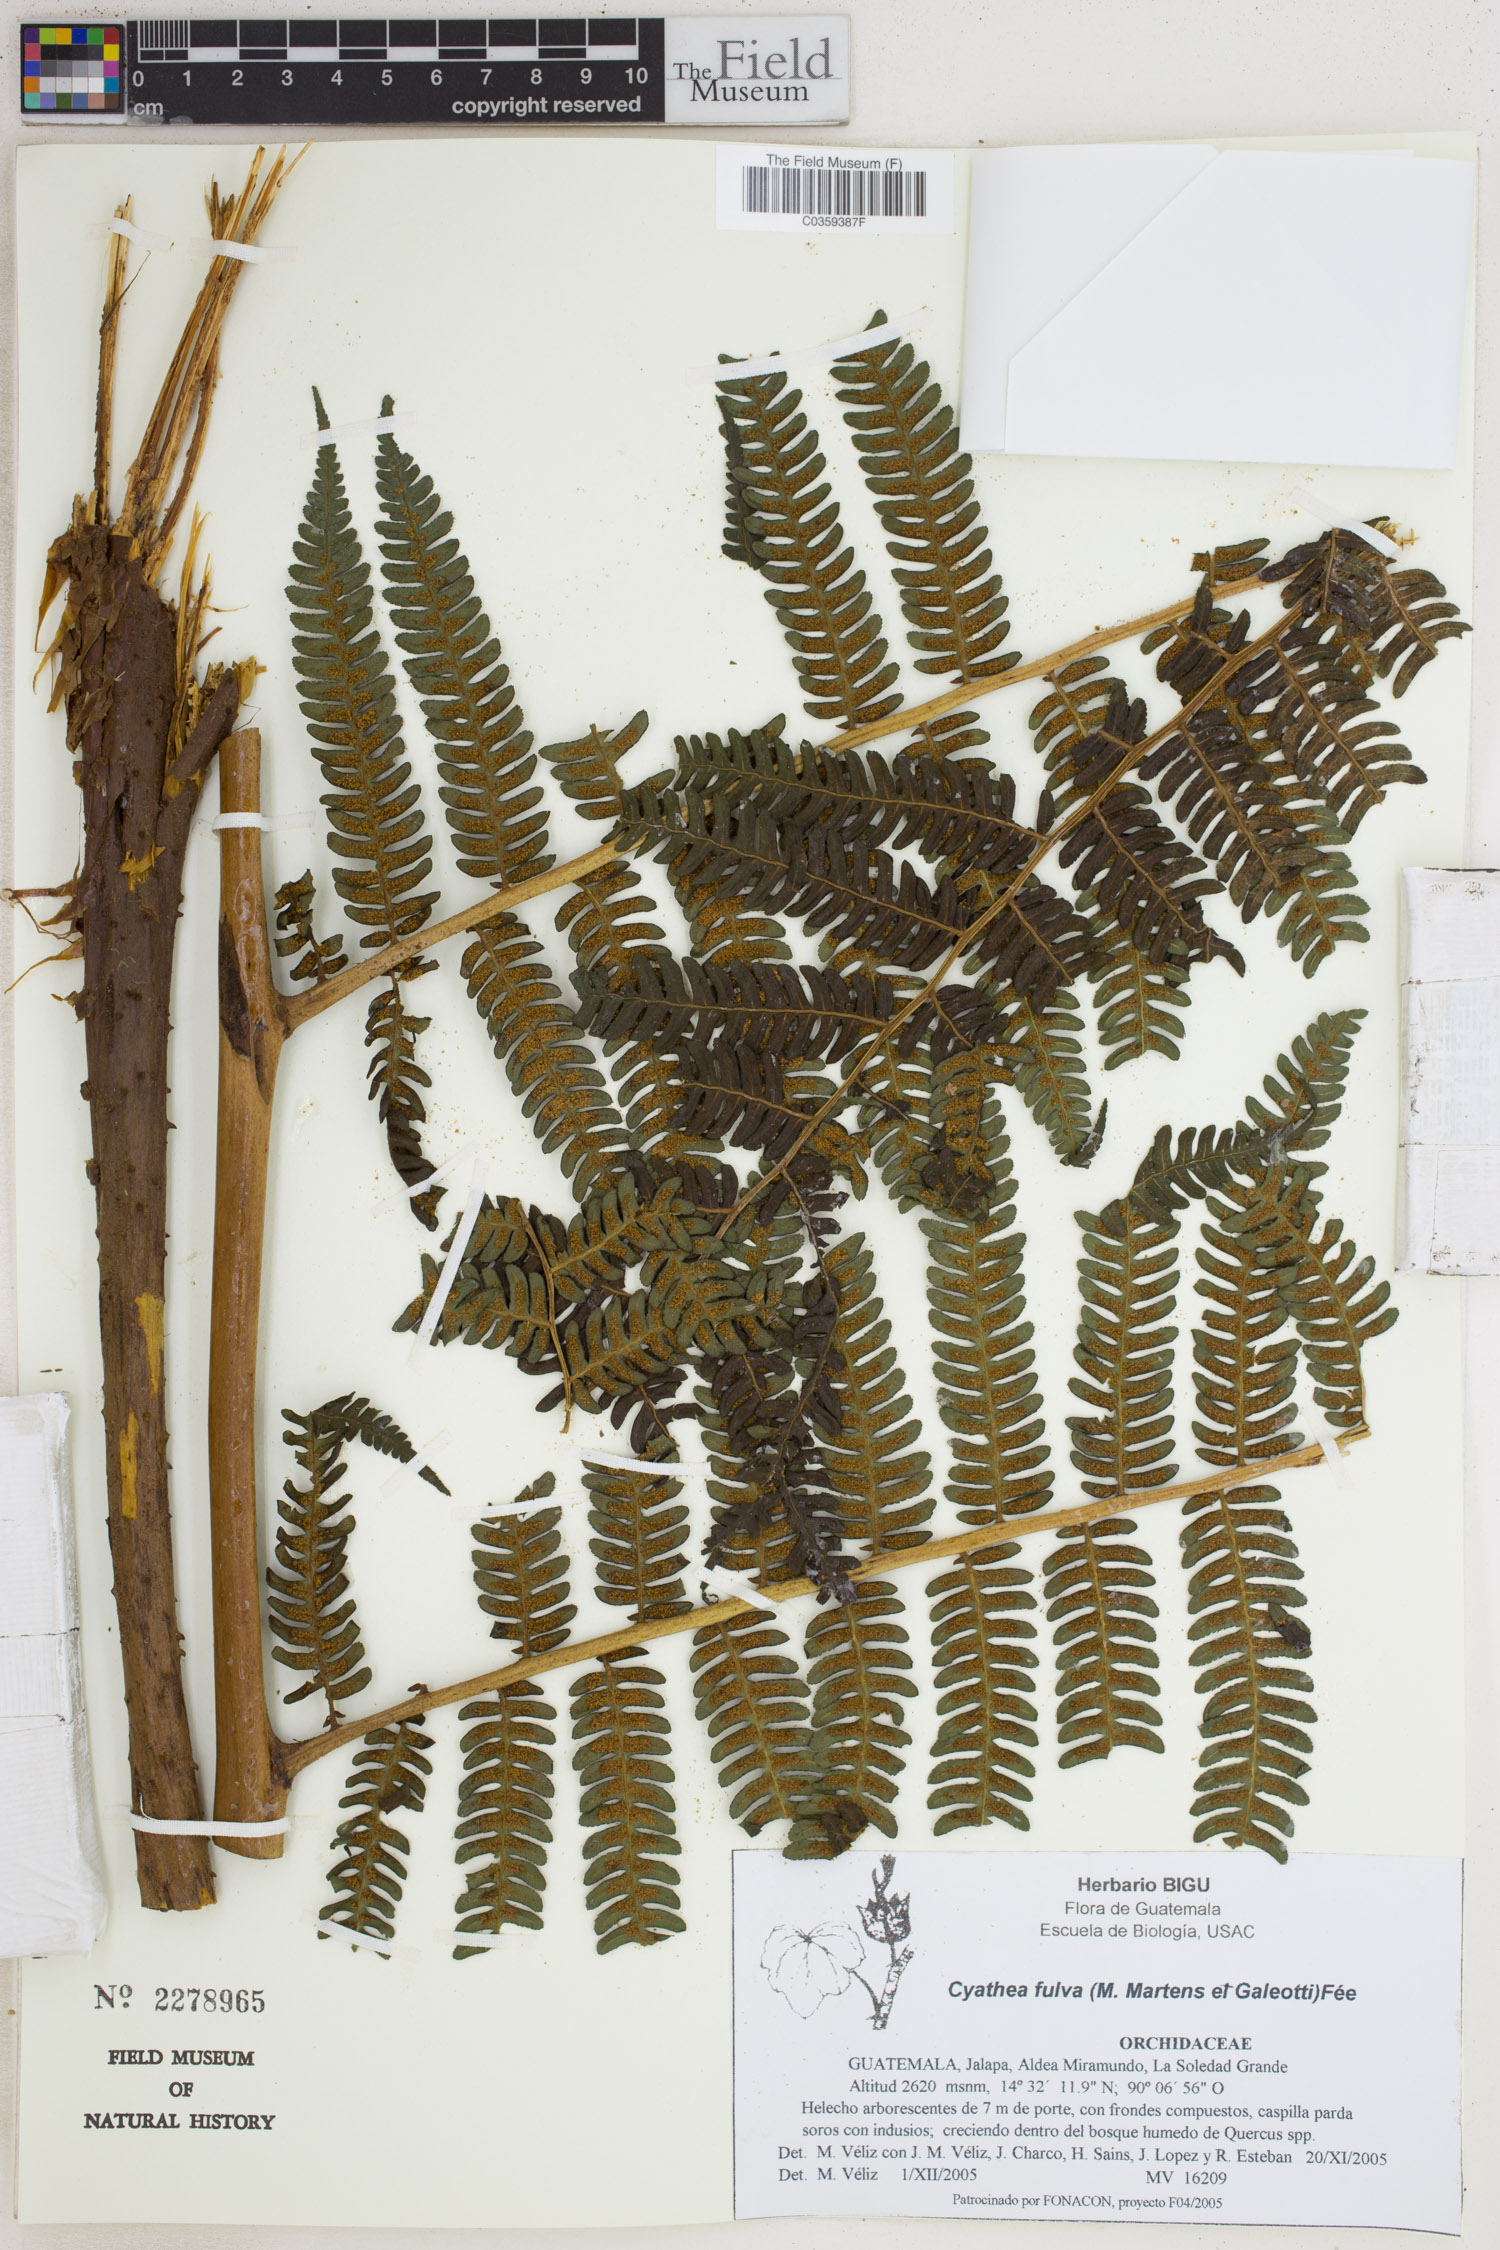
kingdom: Plantae
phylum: Tracheophyta
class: Polypodiopsida
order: Cyatheales
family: Cyatheaceae
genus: Cyathea
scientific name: Cyathea fulva
